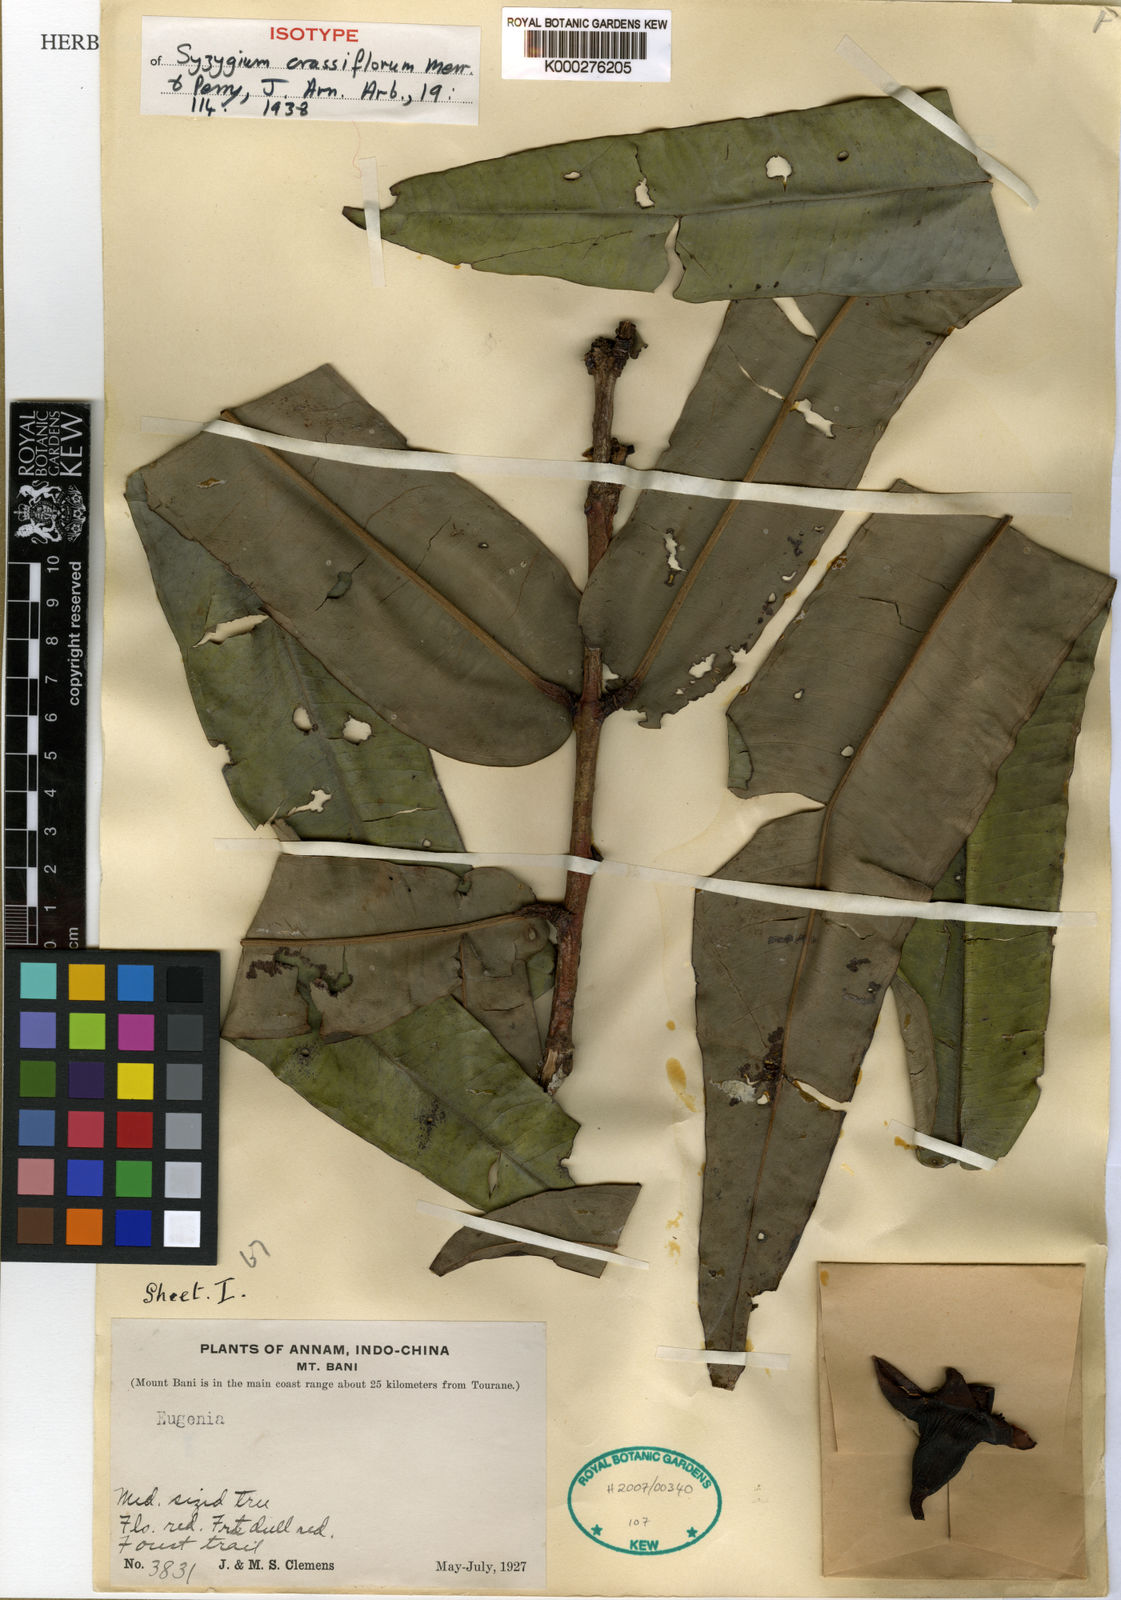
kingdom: Plantae
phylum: Tracheophyta
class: Magnoliopsida
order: Myrtales
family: Myrtaceae
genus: Syzygium
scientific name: Syzygium crassiflorum
